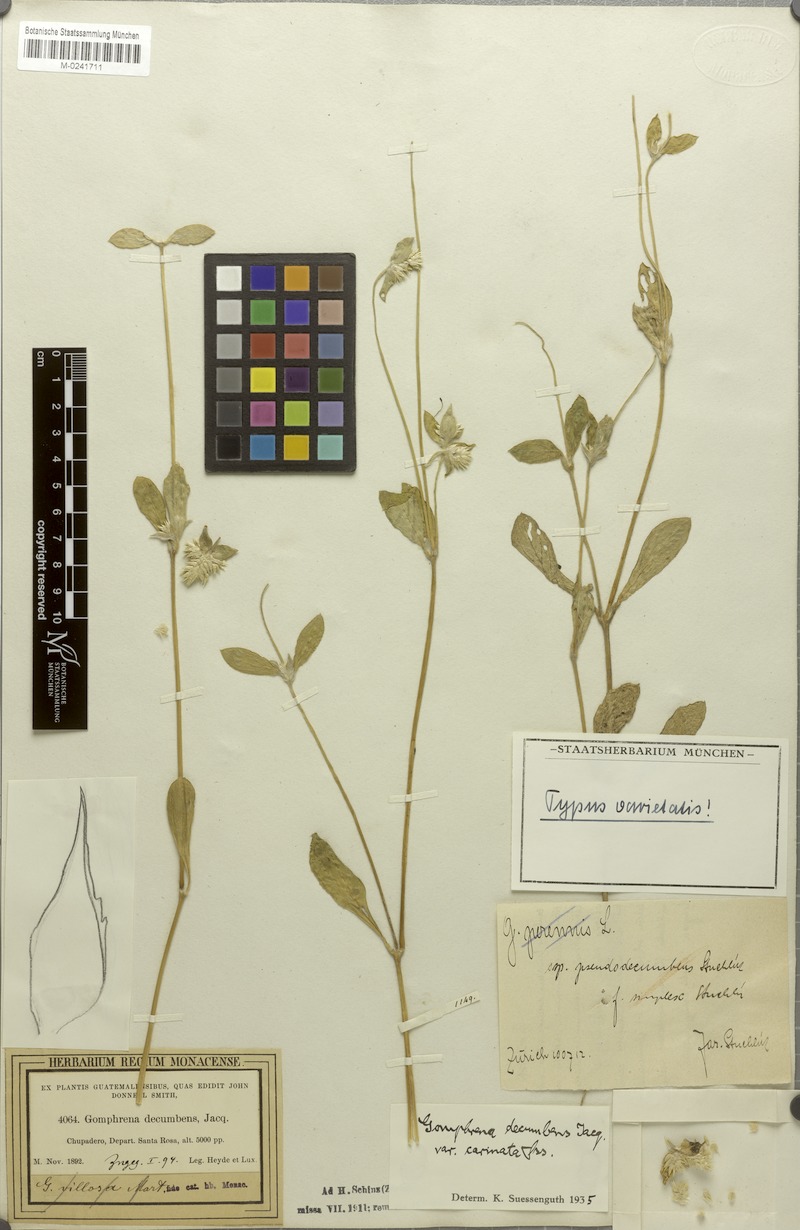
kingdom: Plantae
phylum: Tracheophyta
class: Magnoliopsida
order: Caryophyllales
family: Amaranthaceae
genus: Gomphrena
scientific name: Gomphrena boliviana
